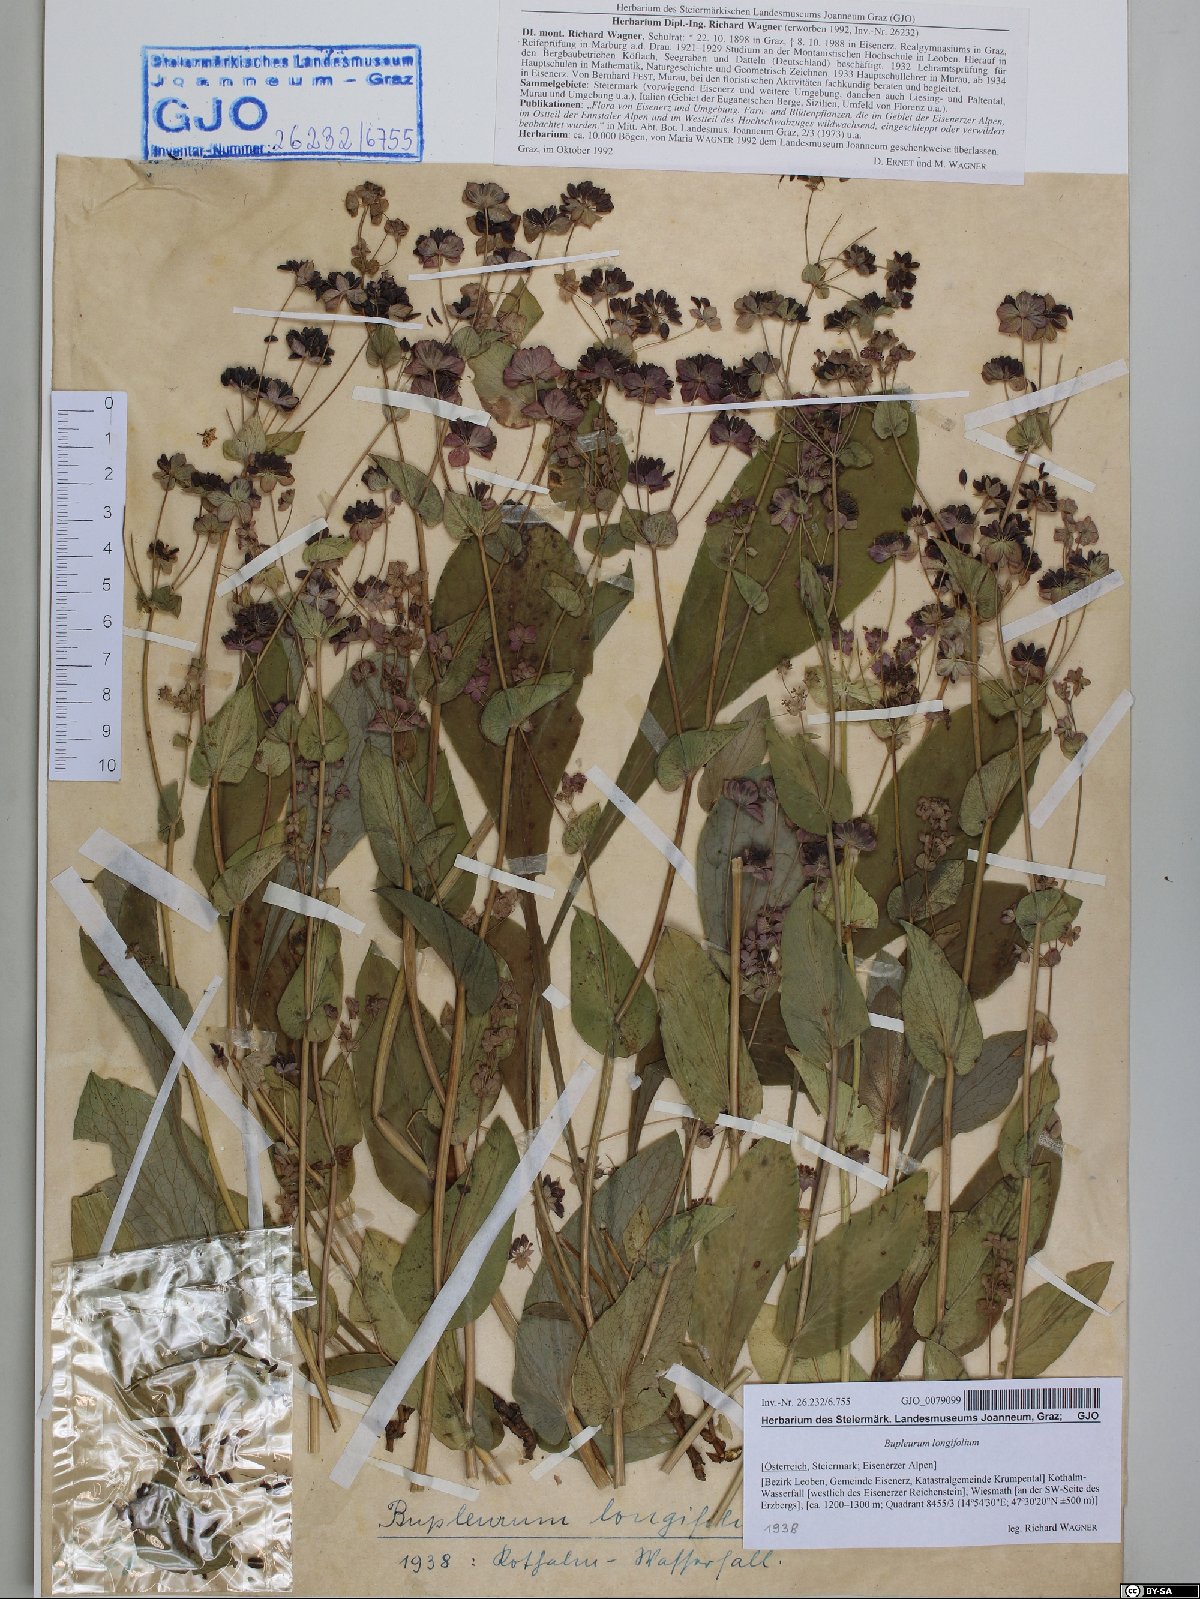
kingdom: Plantae
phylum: Tracheophyta
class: Magnoliopsida
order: Apiales
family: Apiaceae
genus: Bupleurum
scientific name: Bupleurum longifolium
